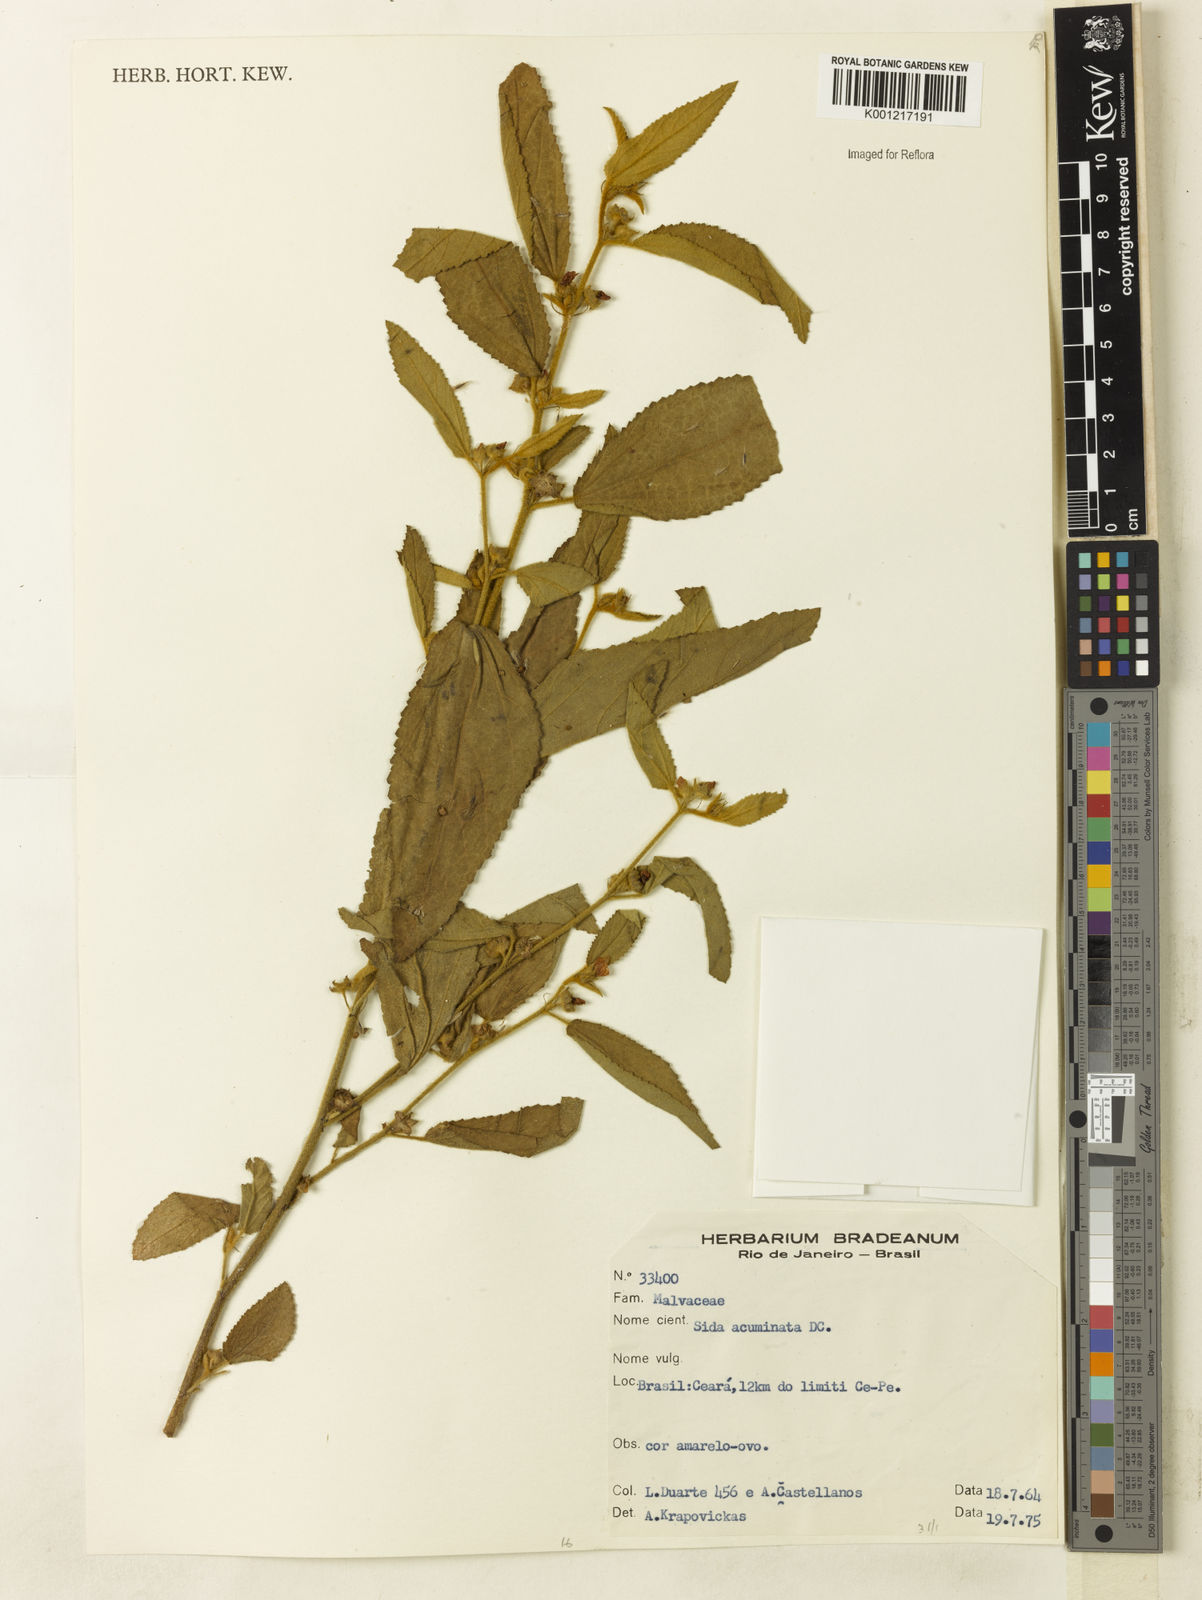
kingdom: Plantae
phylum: Tracheophyta
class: Magnoliopsida
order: Malvales
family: Malvaceae
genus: Sidastrum
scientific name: Sidastrum multiflorum
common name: Manyflower sandmallow
